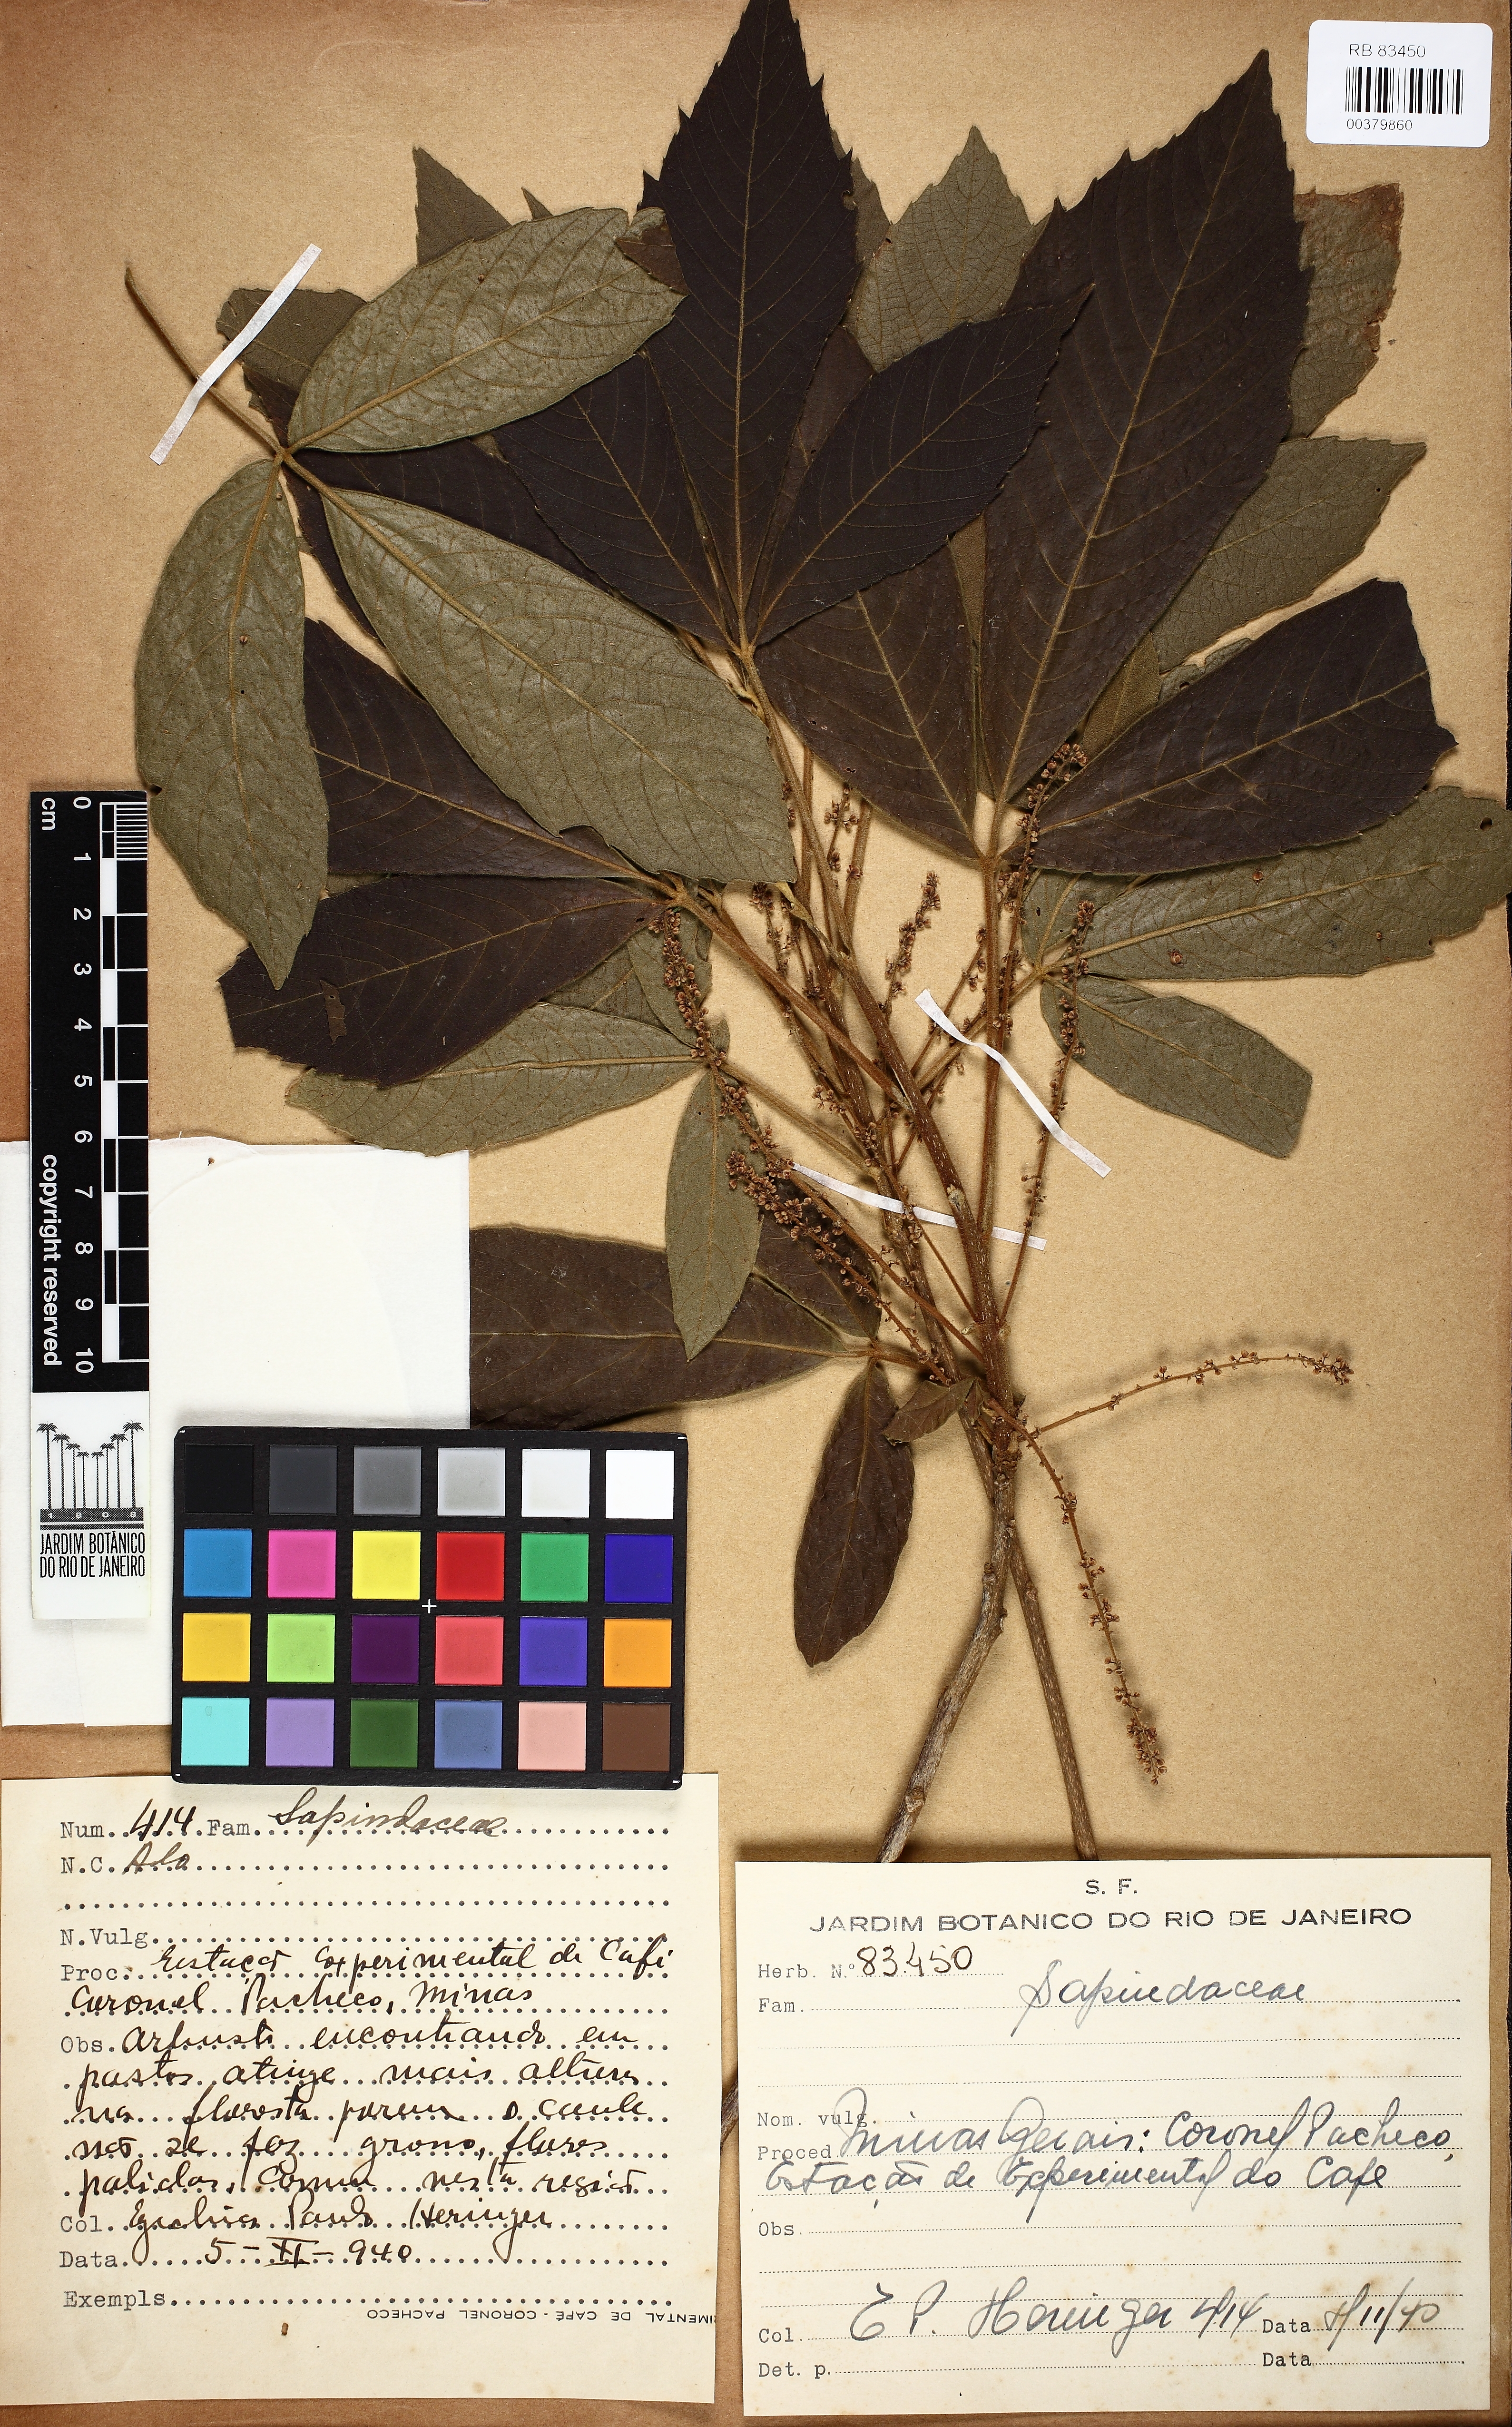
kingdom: Plantae
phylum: Tracheophyta
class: Magnoliopsida
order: Sapindales
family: Sapindaceae
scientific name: Sapindaceae
